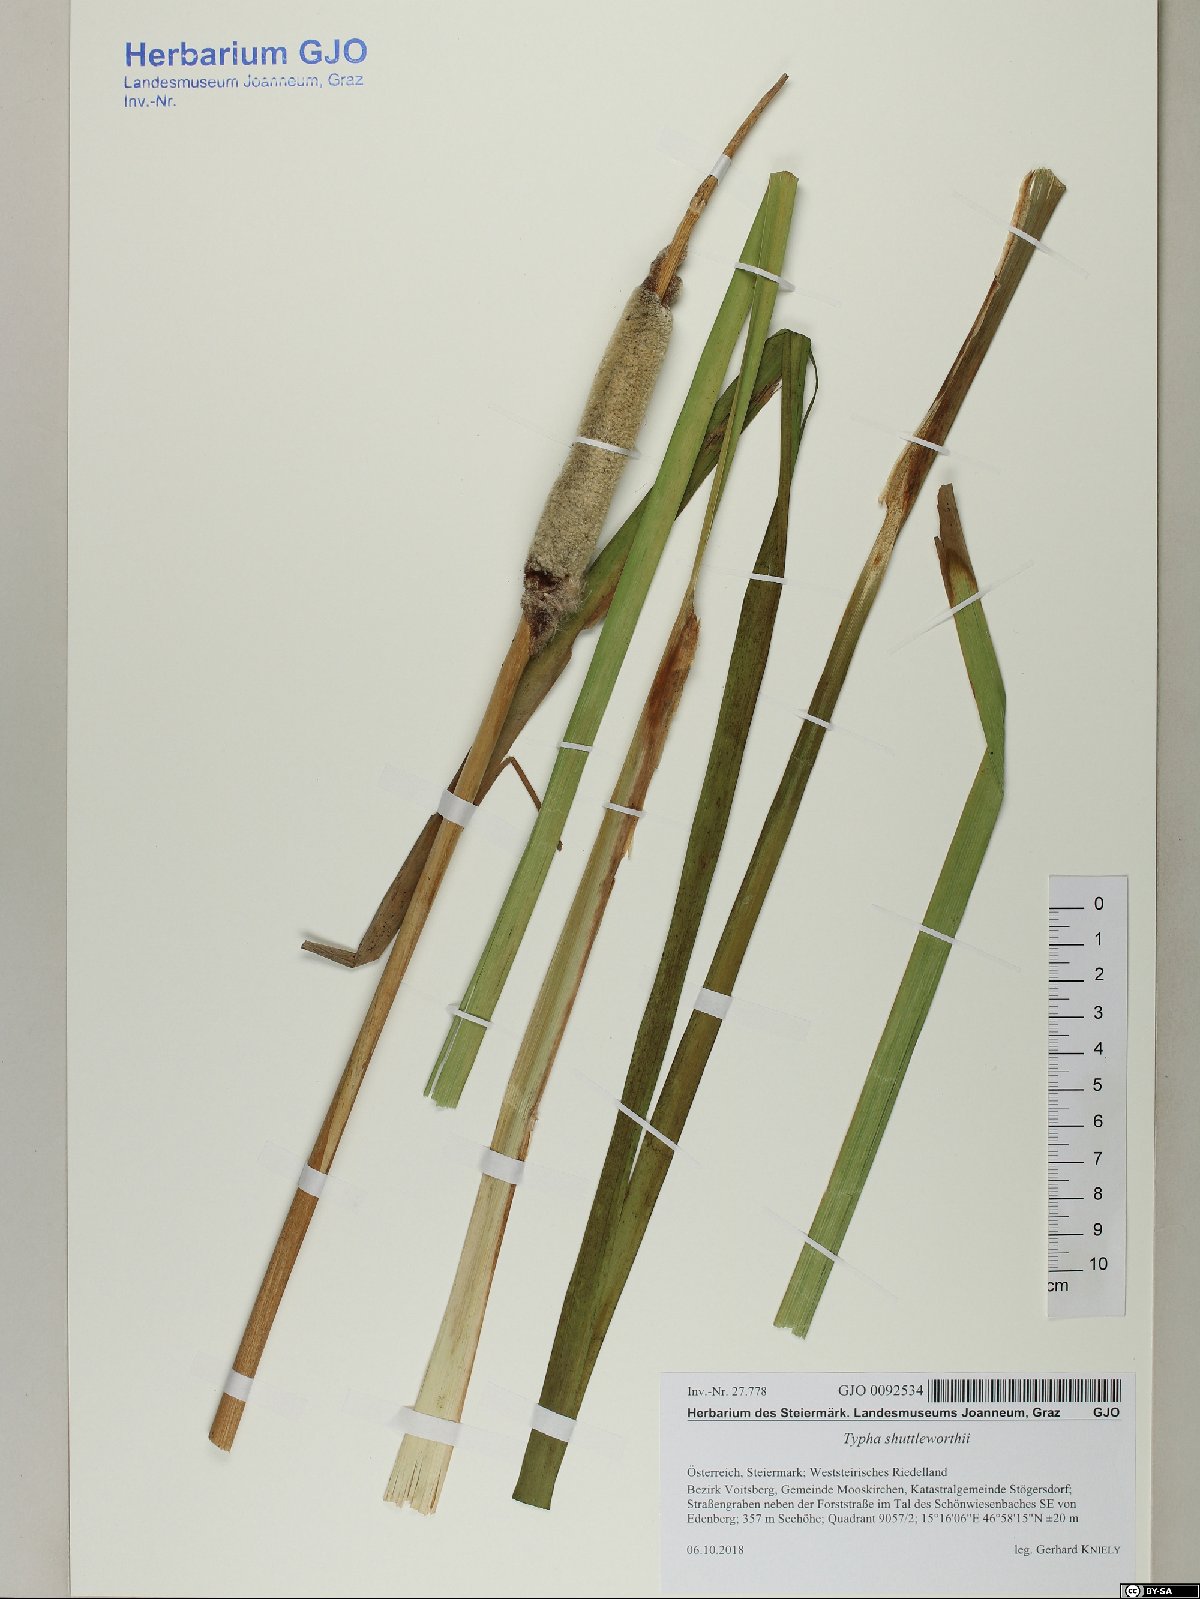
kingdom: Plantae
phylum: Tracheophyta
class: Liliopsida
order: Poales
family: Typhaceae
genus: Typha
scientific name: Typha shuttleworthii
